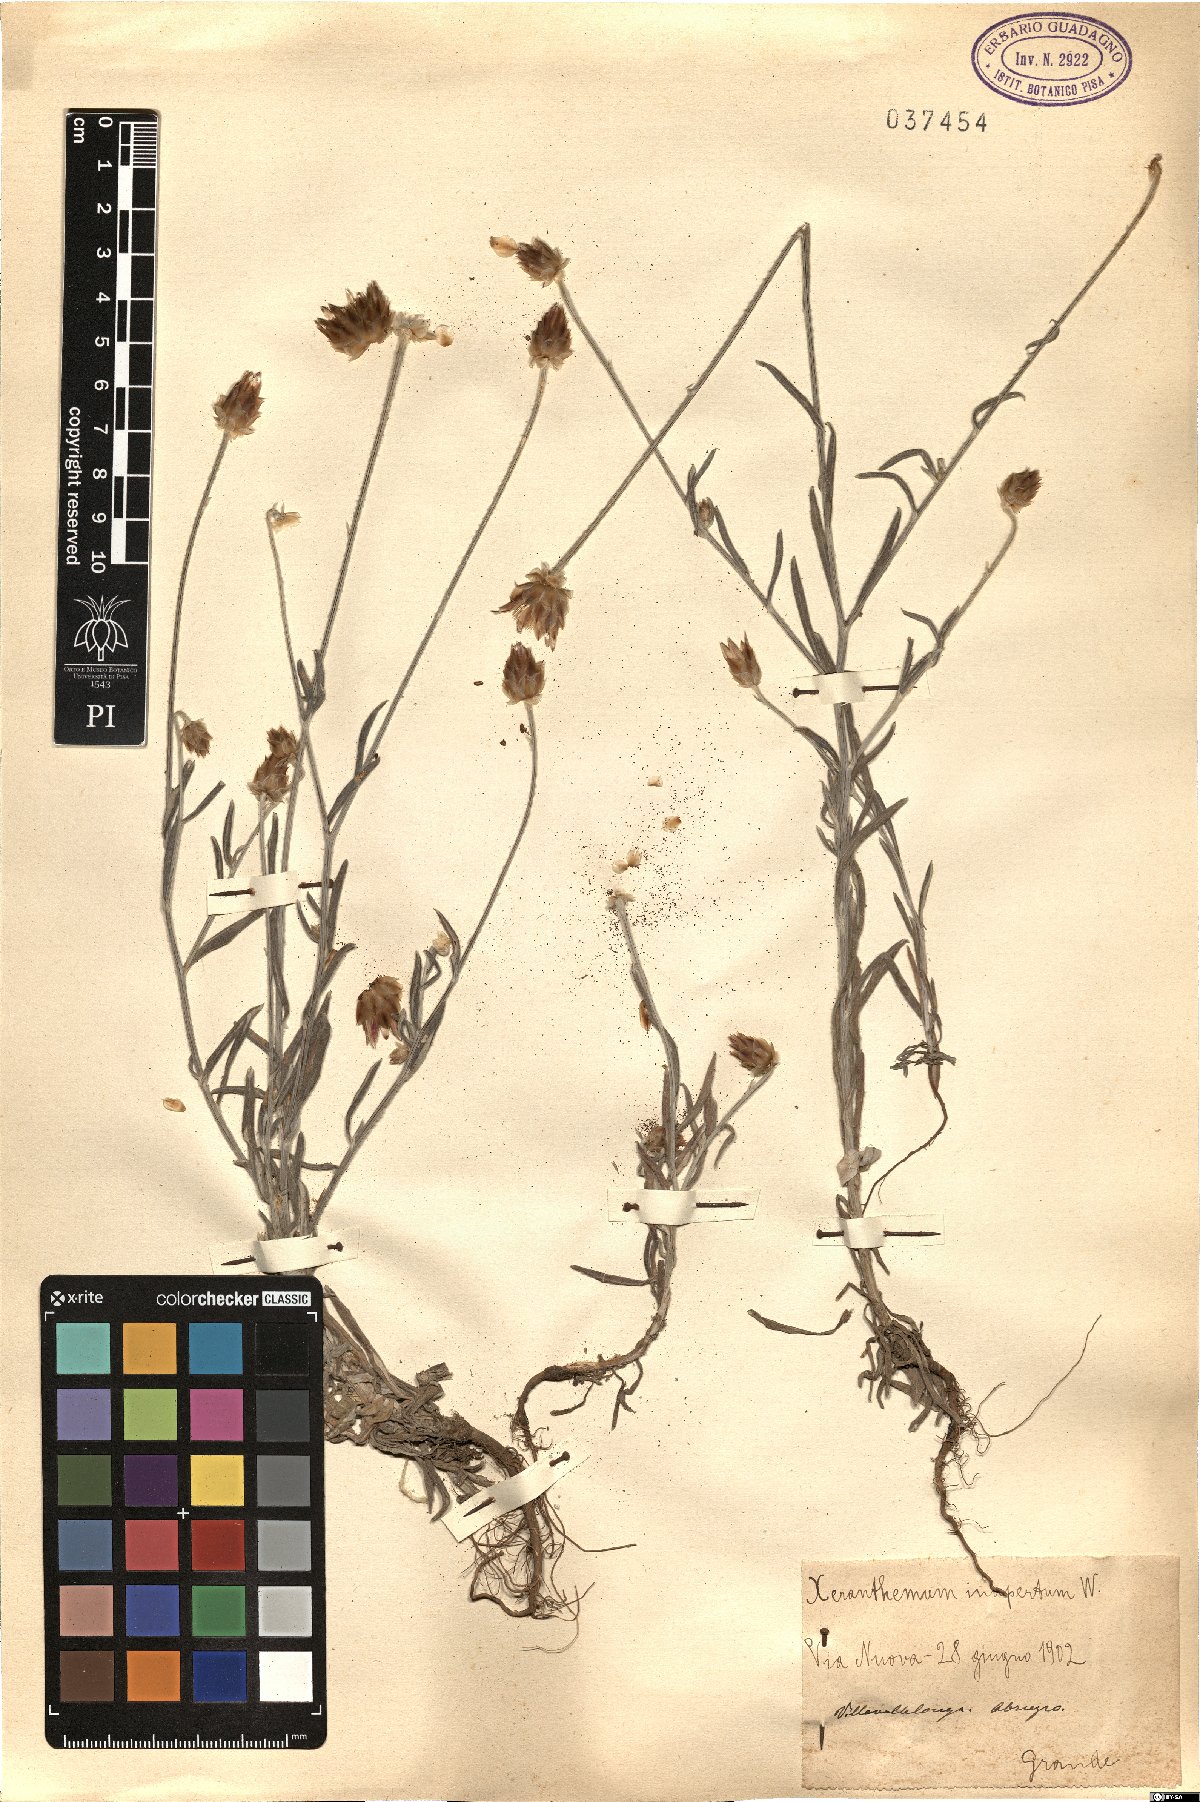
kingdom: Plantae
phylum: Tracheophyta
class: Magnoliopsida
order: Asterales
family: Asteraceae
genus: Xeranthemum
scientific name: Xeranthemum inapertum
